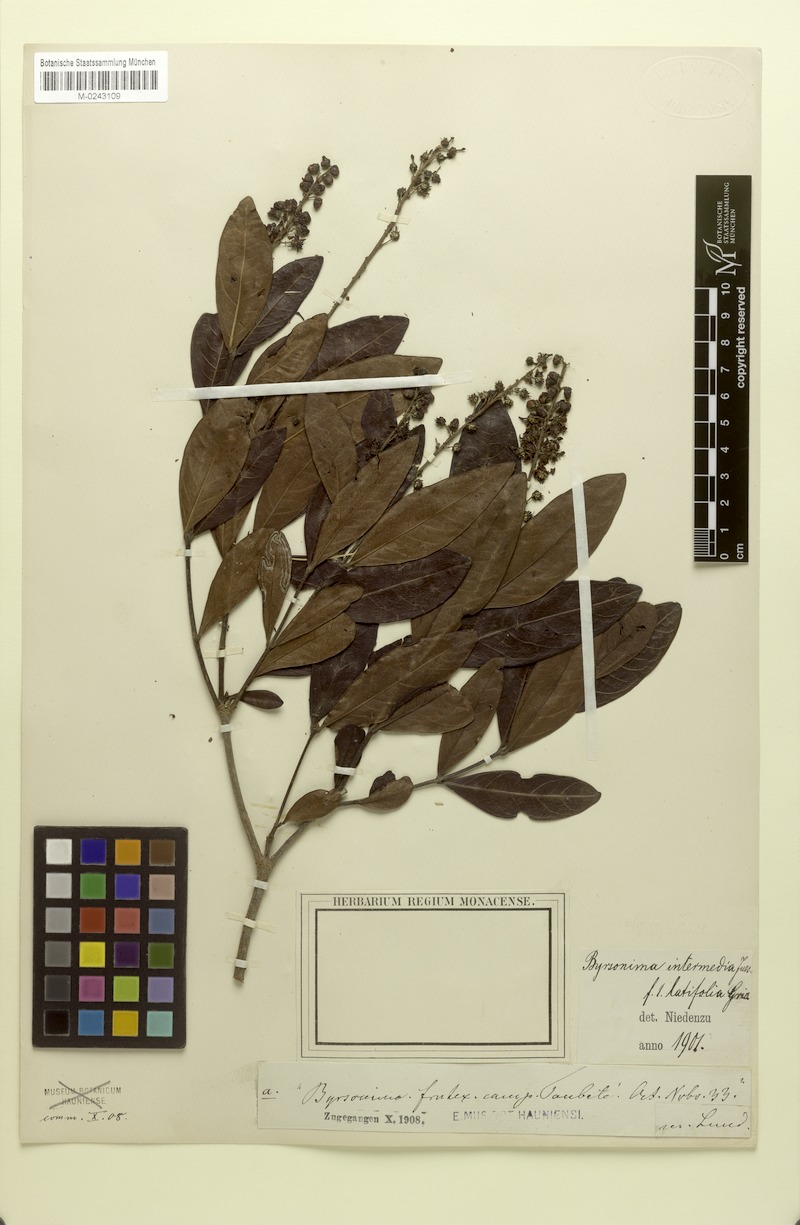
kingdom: Plantae
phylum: Tracheophyta
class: Magnoliopsida
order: Malpighiales
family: Malpighiaceae
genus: Byrsonima
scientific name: Byrsonima intermedia
